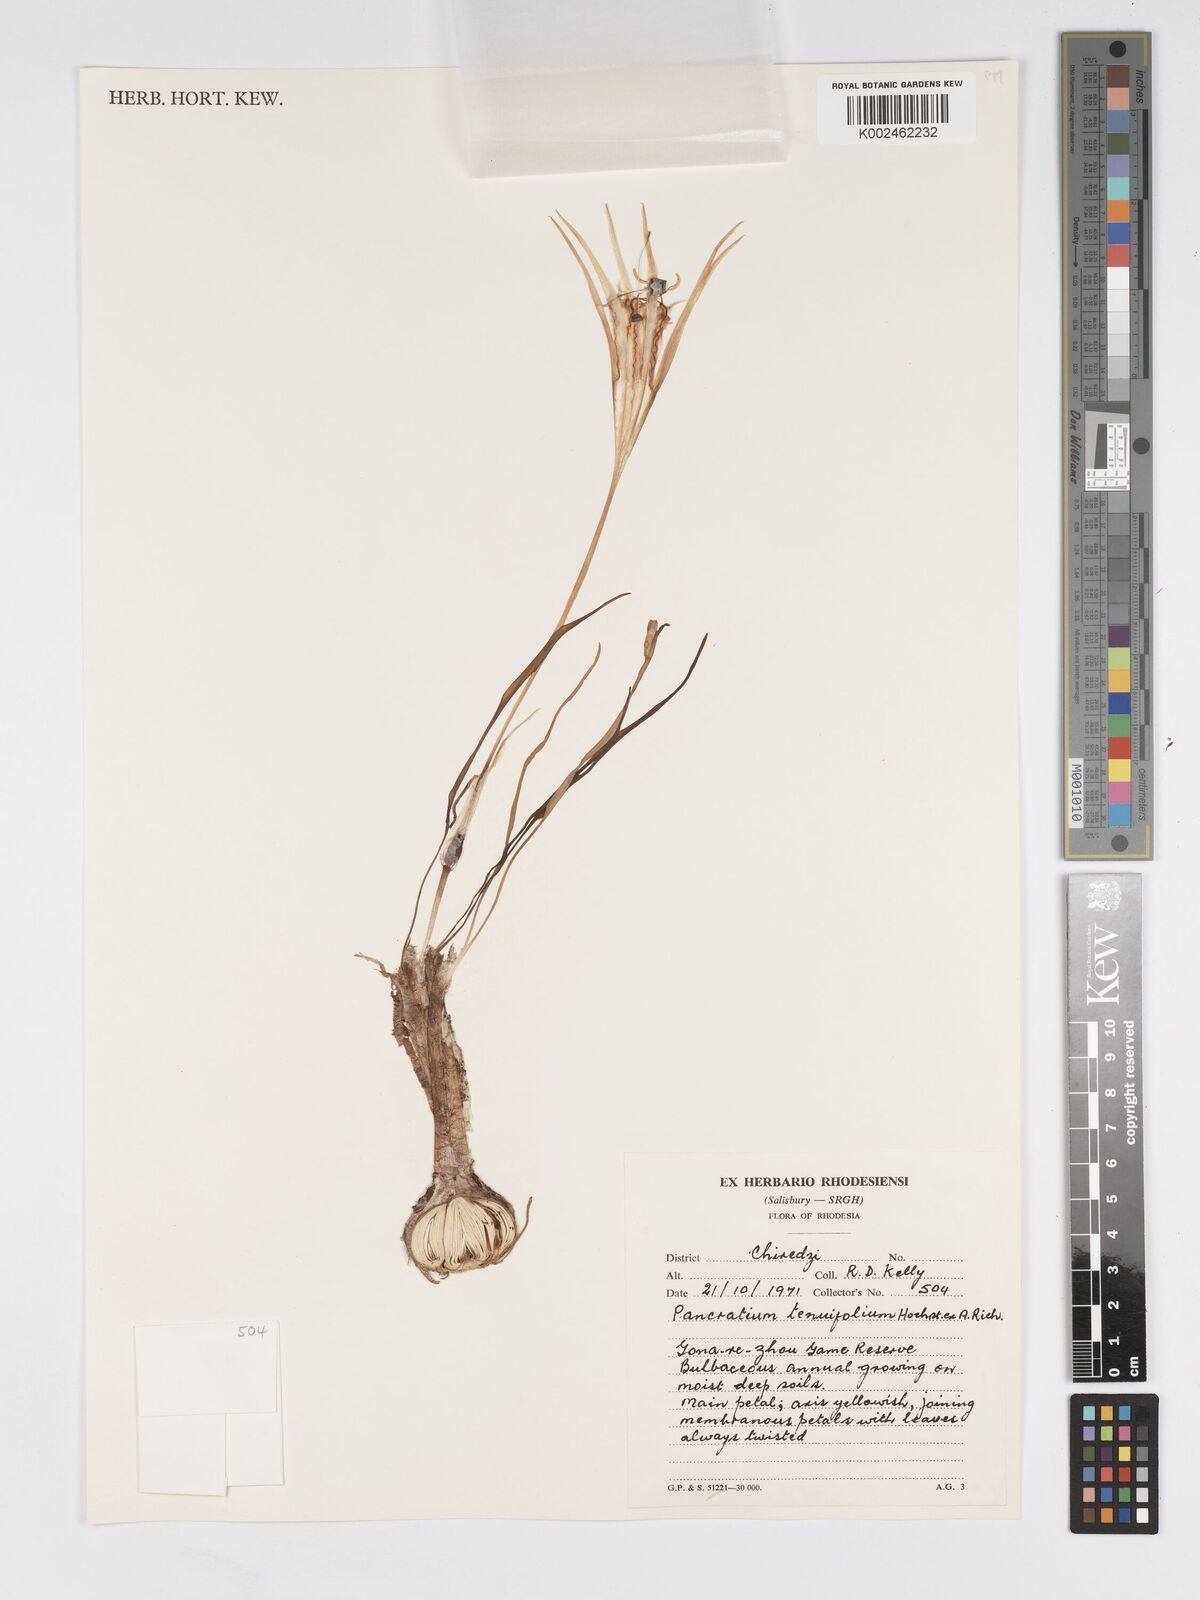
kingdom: Plantae
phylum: Tracheophyta
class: Liliopsida
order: Asparagales
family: Amaryllidaceae
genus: Pancratium
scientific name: Pancratium tenuifolium
